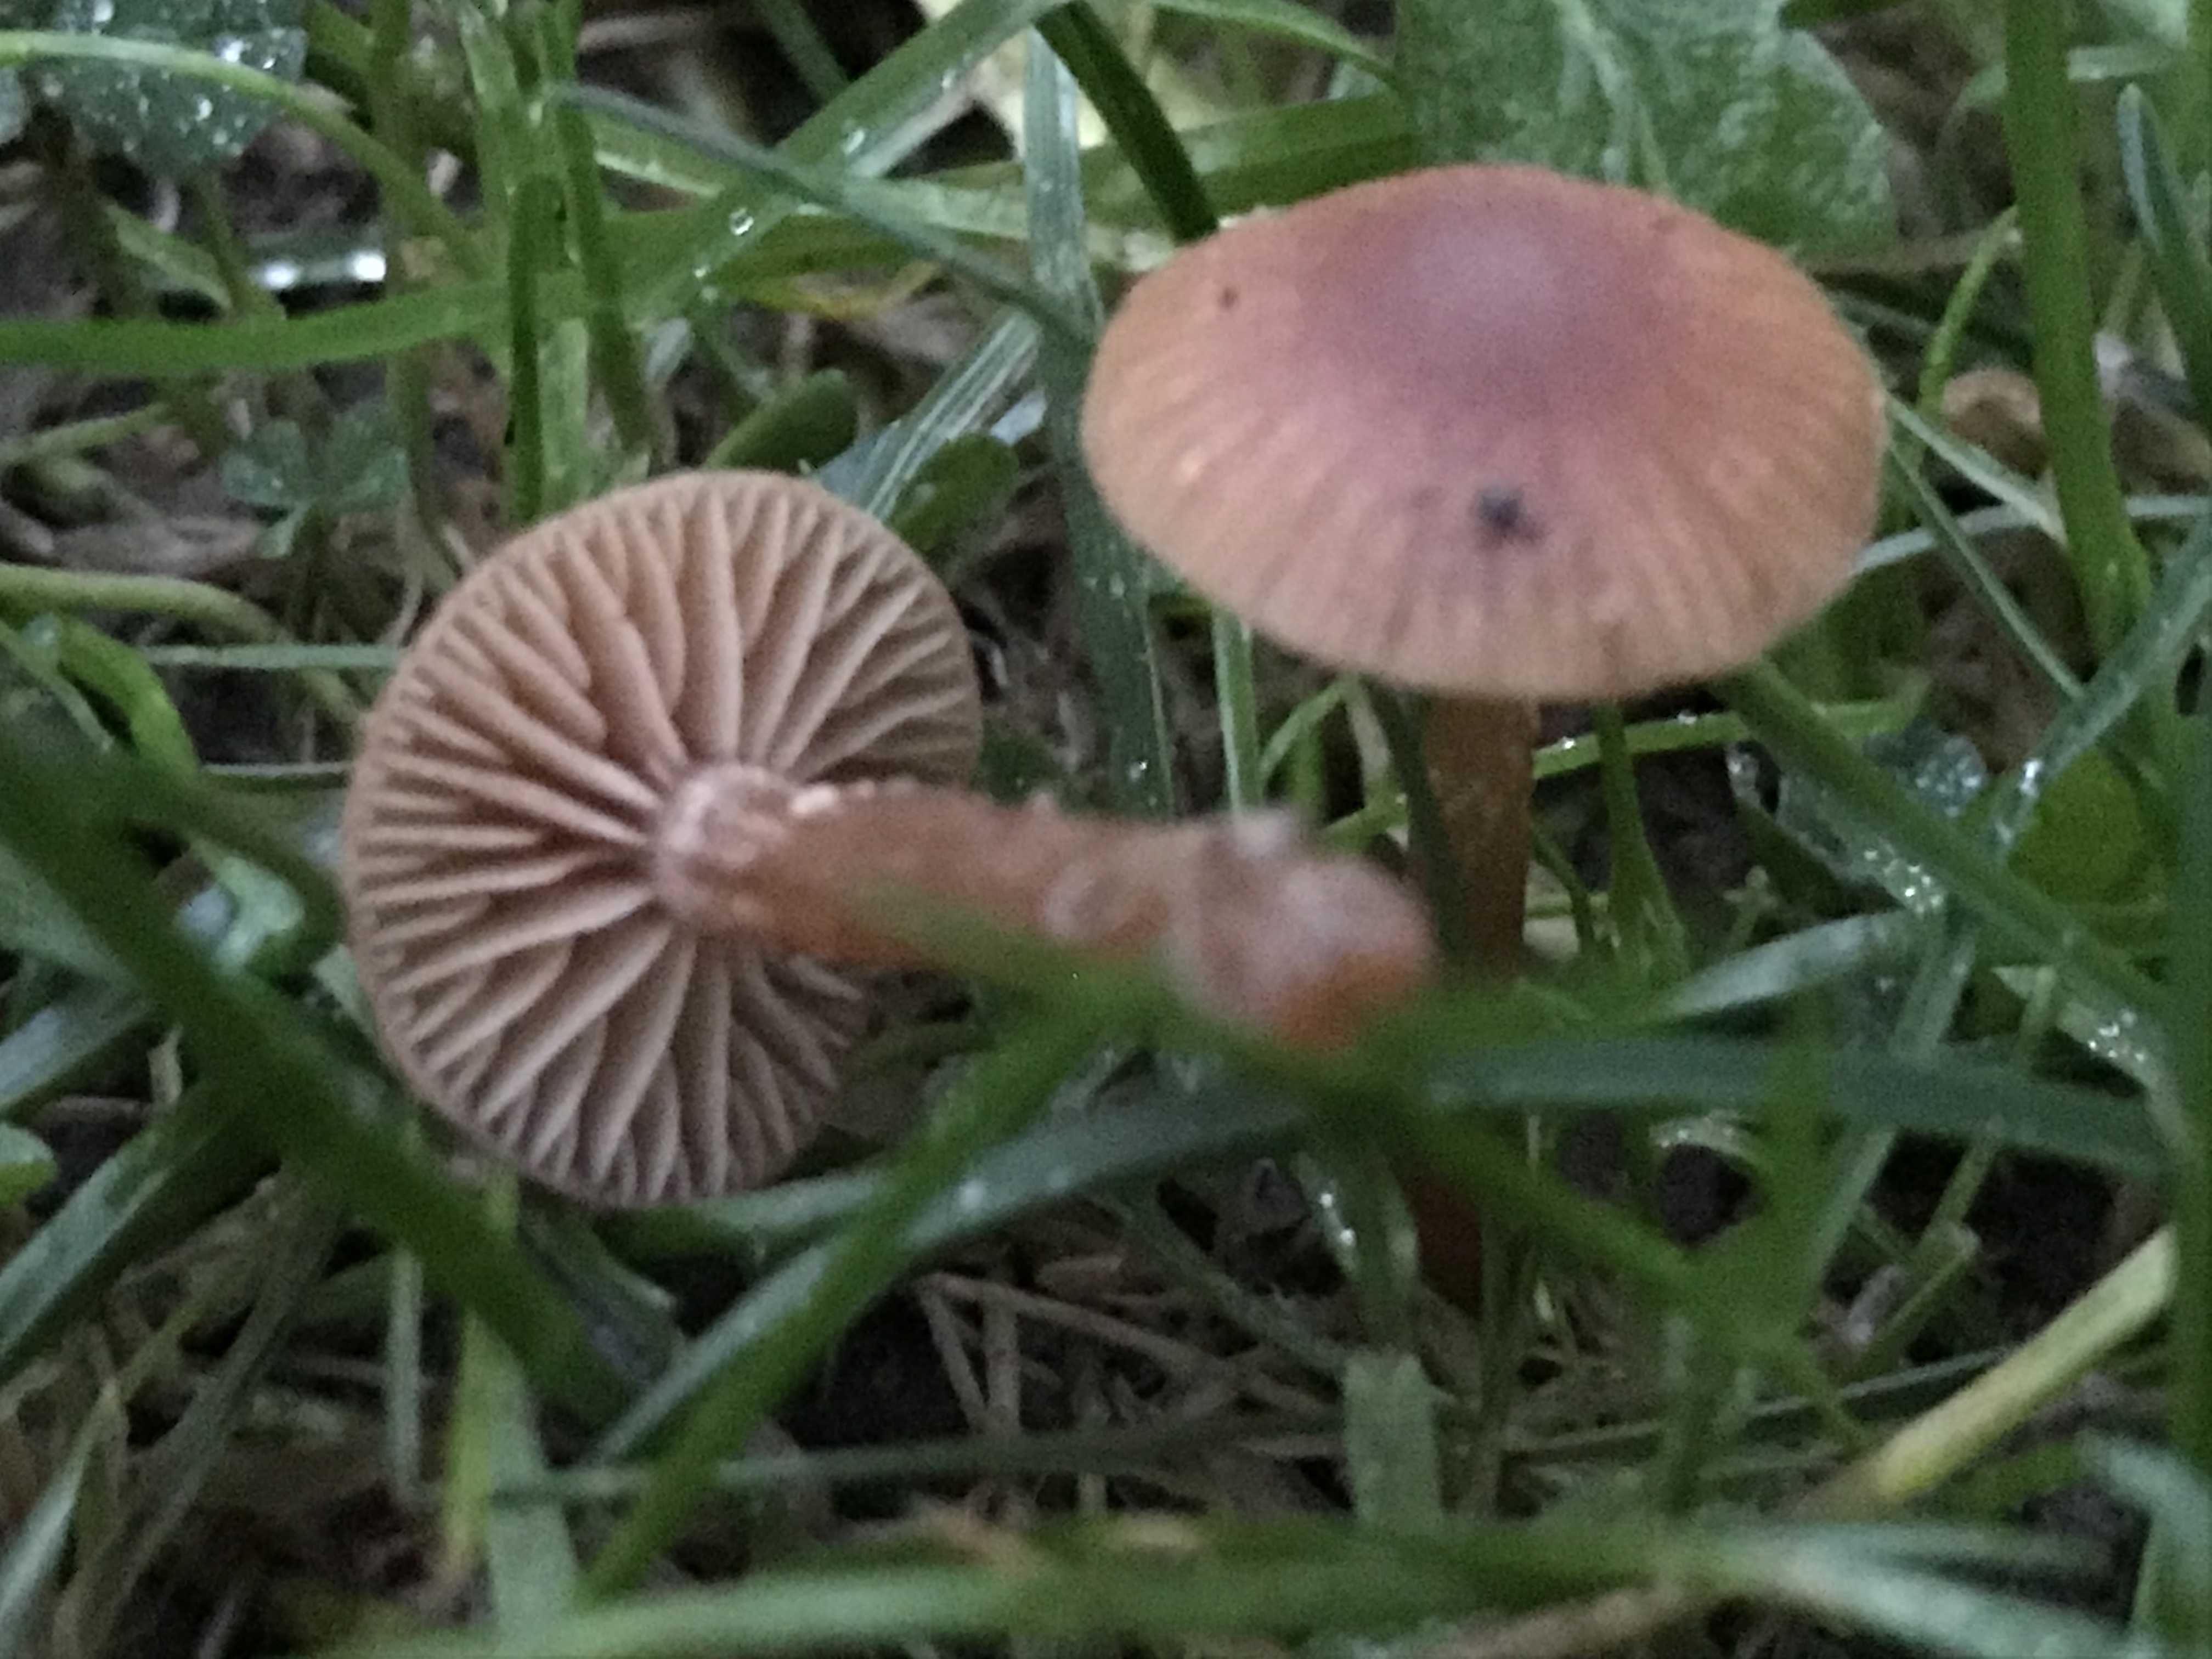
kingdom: Fungi
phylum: Basidiomycota
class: Agaricomycetes
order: Agaricales
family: Tubariaceae
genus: Tubaria
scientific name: Tubaria furfuracea
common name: kliddet fnughat
